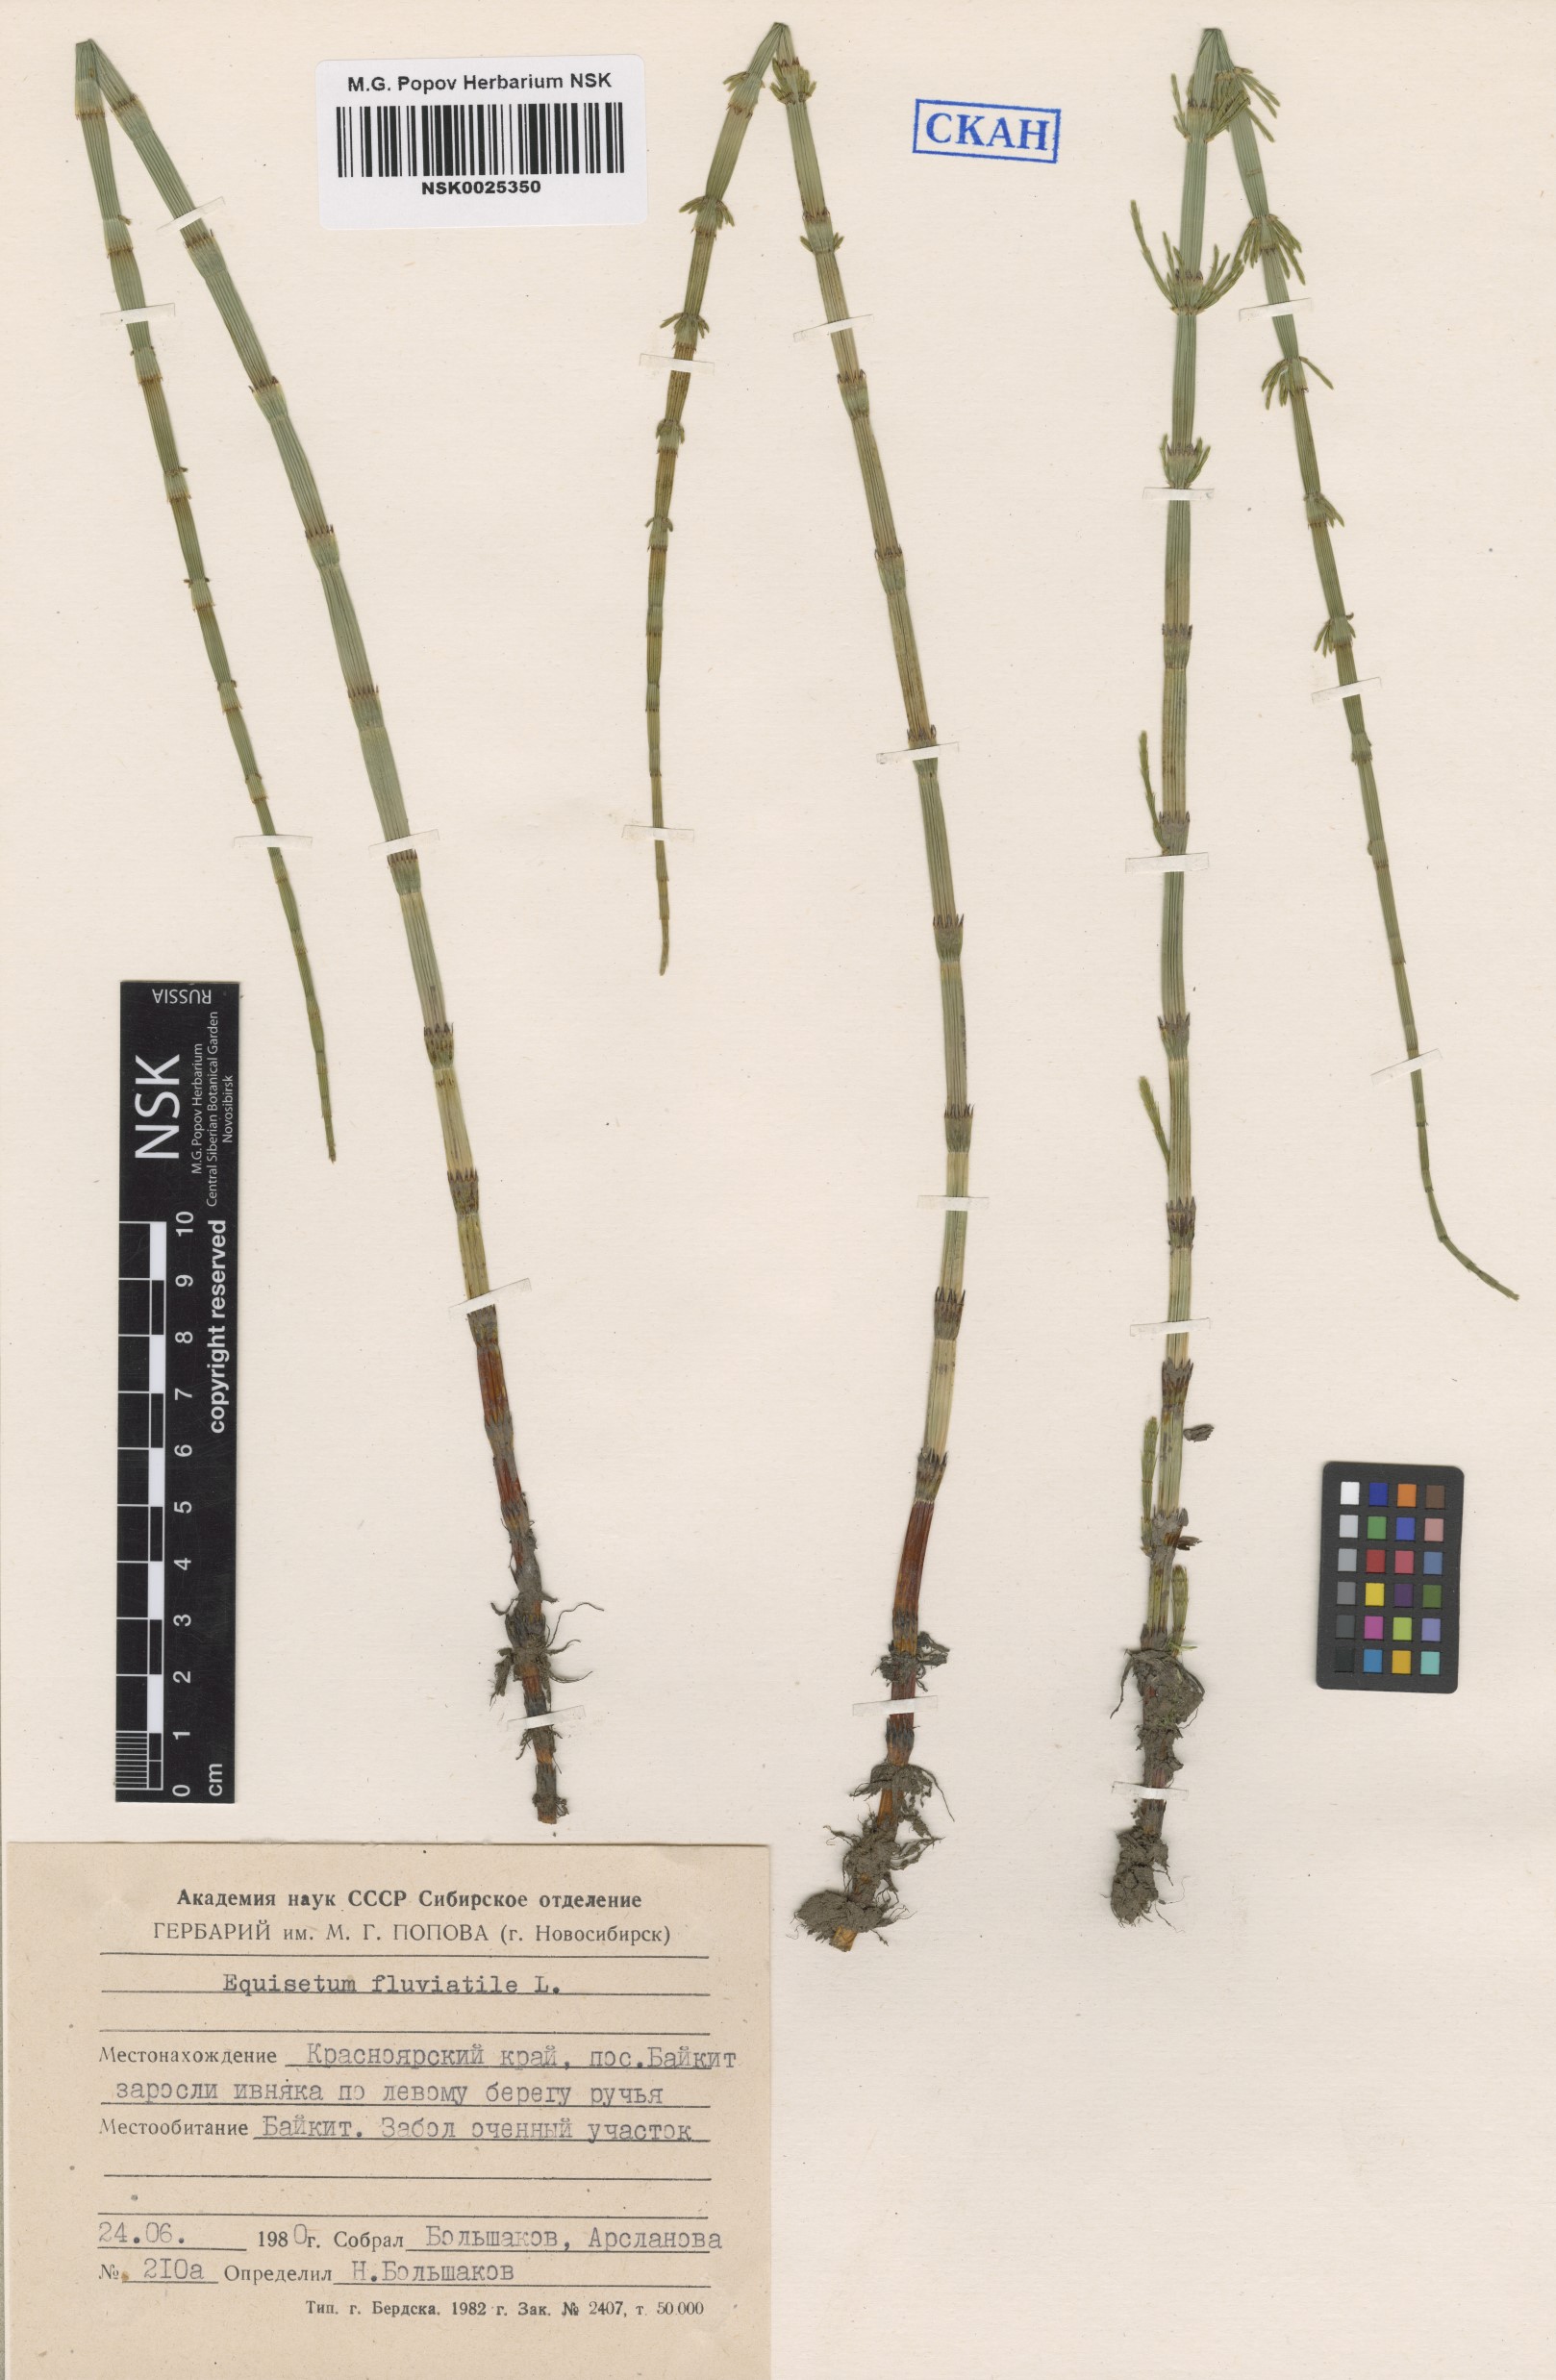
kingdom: Plantae
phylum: Tracheophyta
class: Polypodiopsida
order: Equisetales
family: Equisetaceae
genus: Equisetum
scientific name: Equisetum fluviatile
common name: Water horsetail
